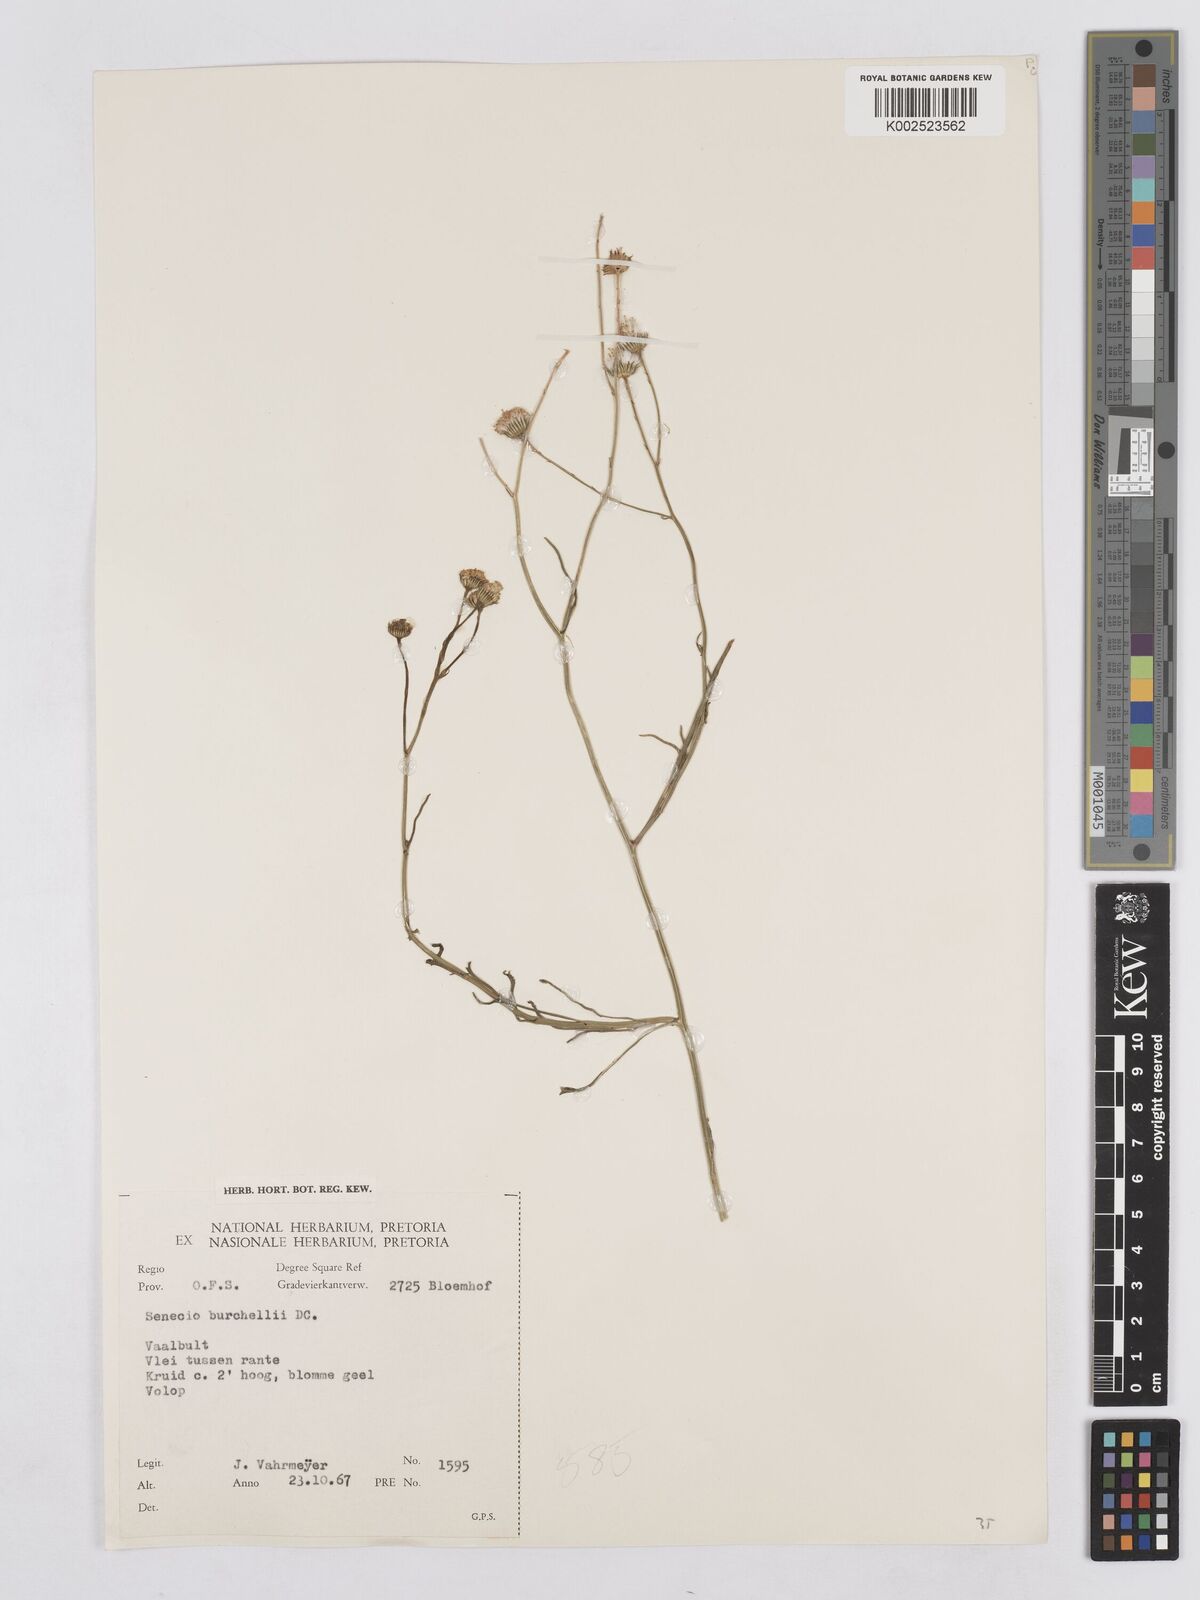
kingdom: Plantae
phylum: Tracheophyta
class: Magnoliopsida
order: Asterales
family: Asteraceae
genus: Senecio
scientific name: Senecio inaequidens
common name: Narrow-leaved ragwort
